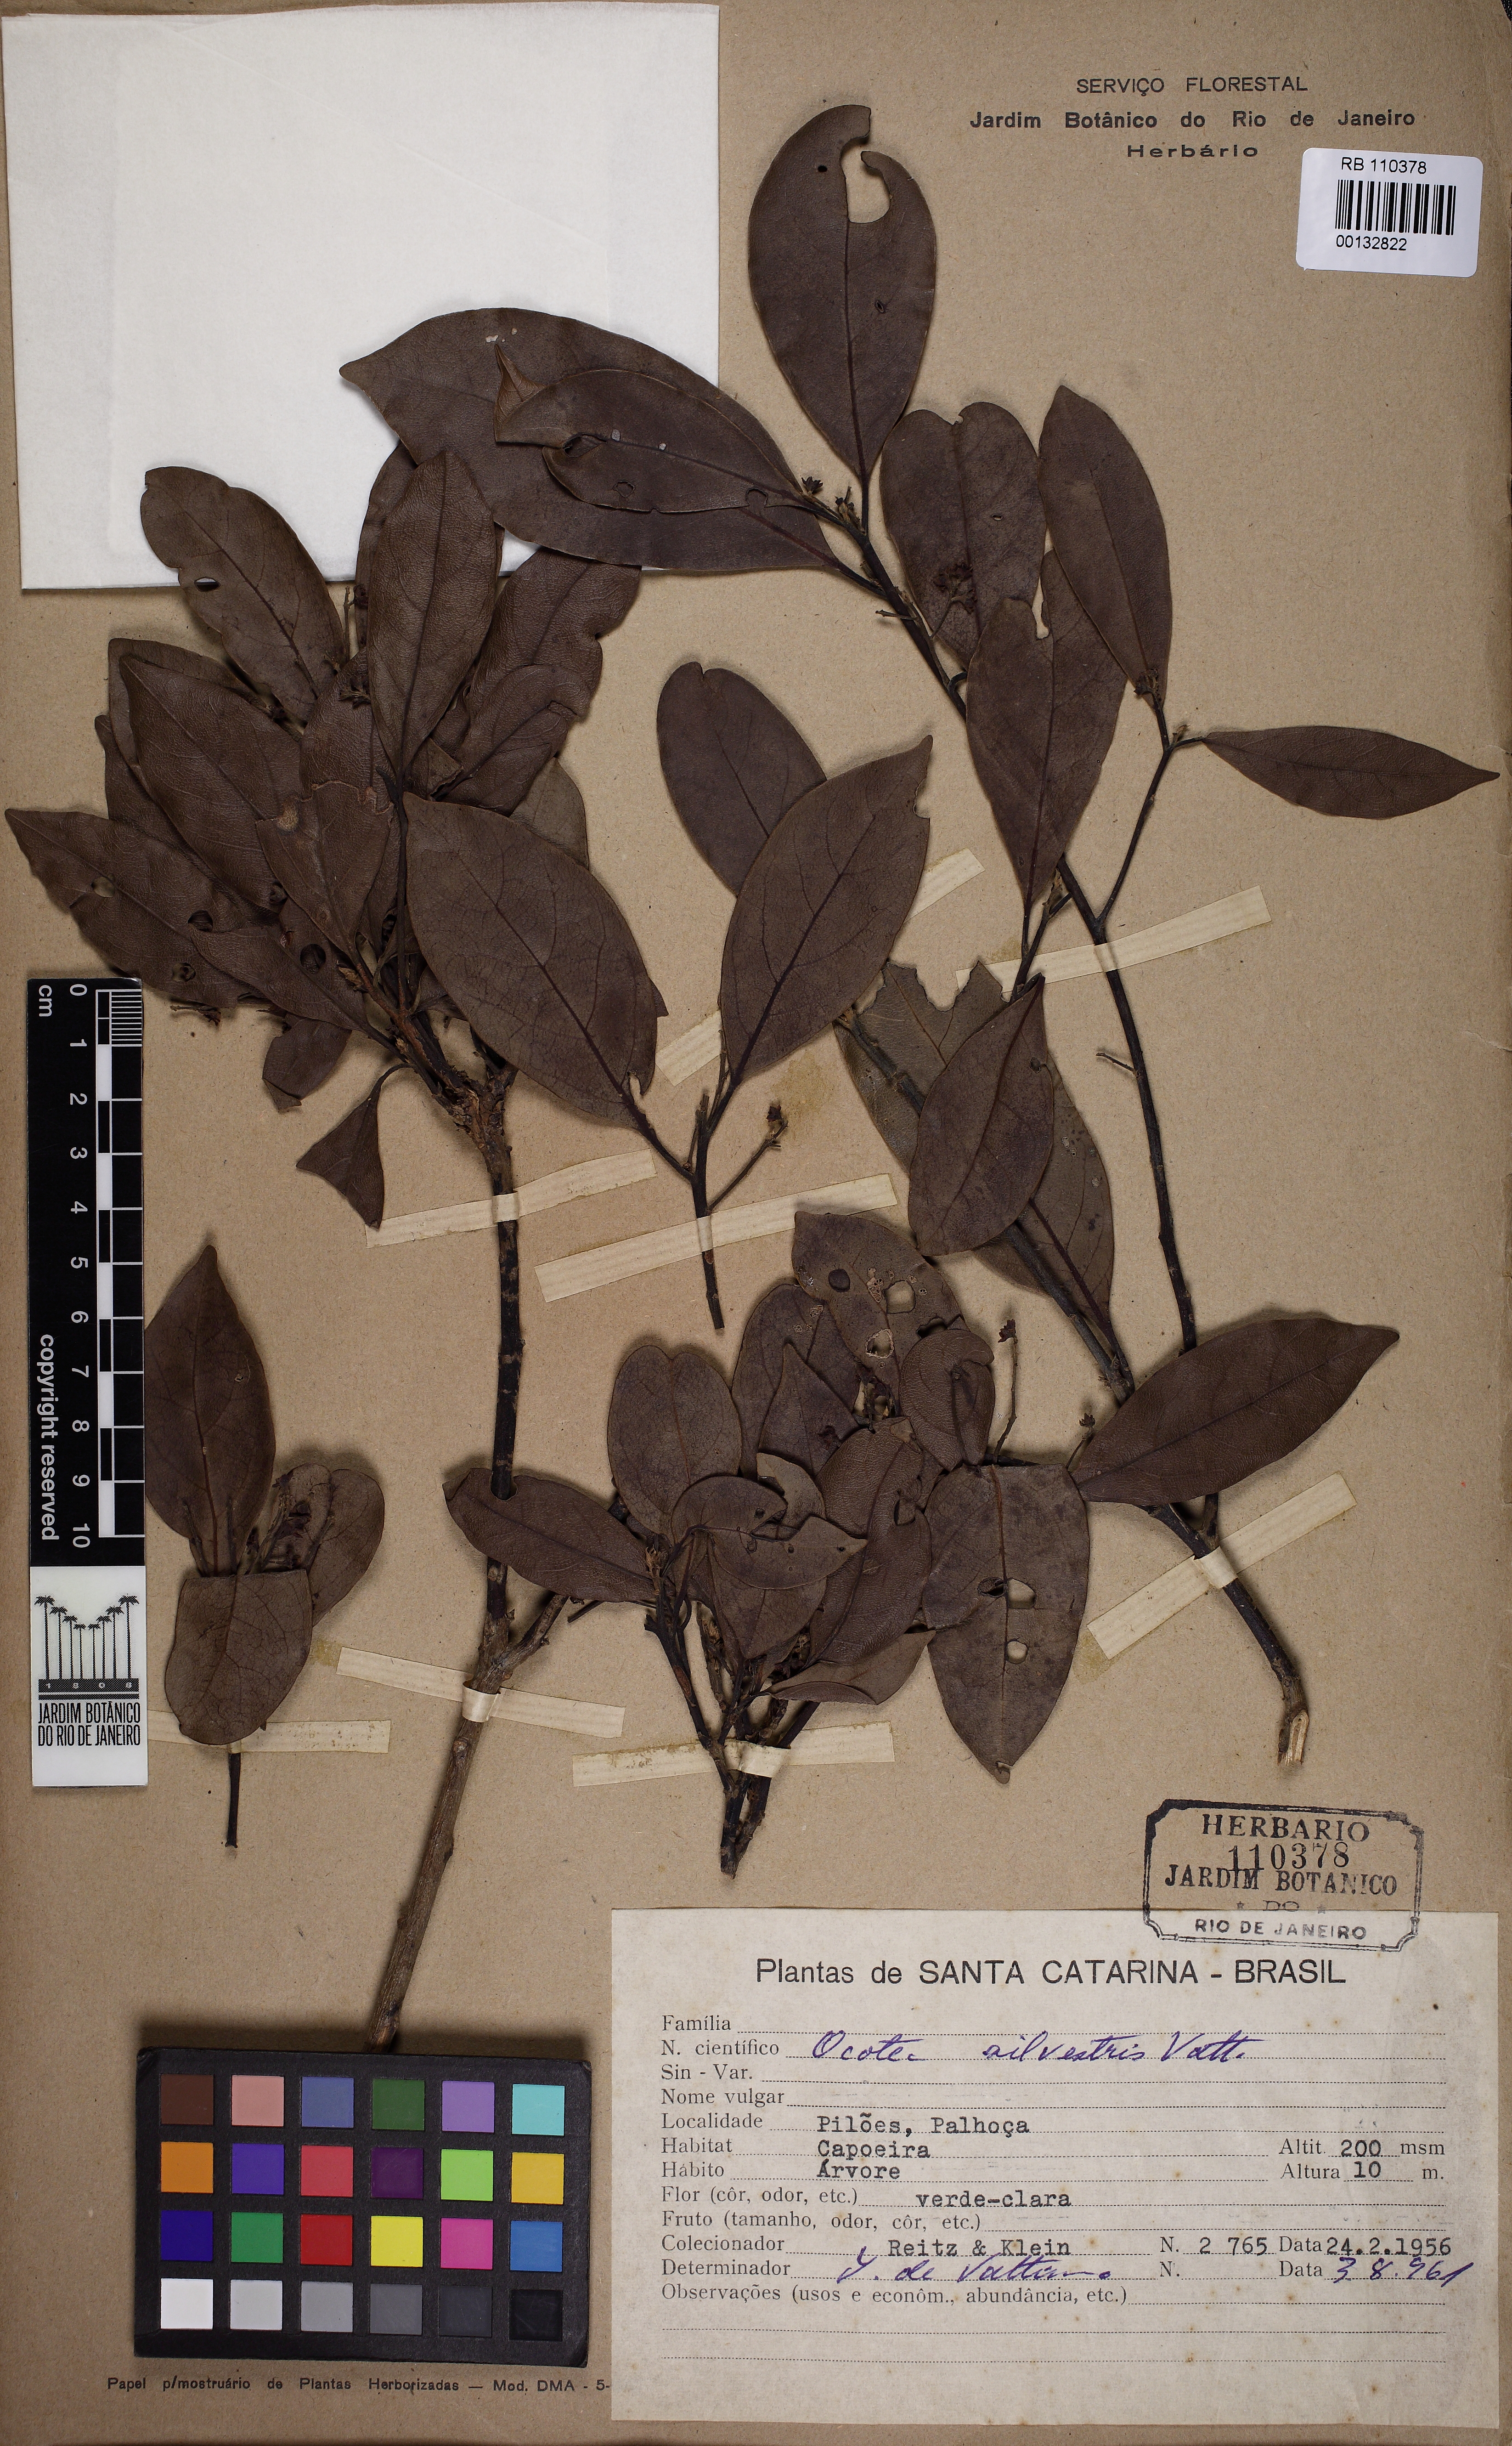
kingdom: Plantae
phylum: Tracheophyta
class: Magnoliopsida
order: Laurales
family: Lauraceae
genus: Ocotea
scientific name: Ocotea silvestris
